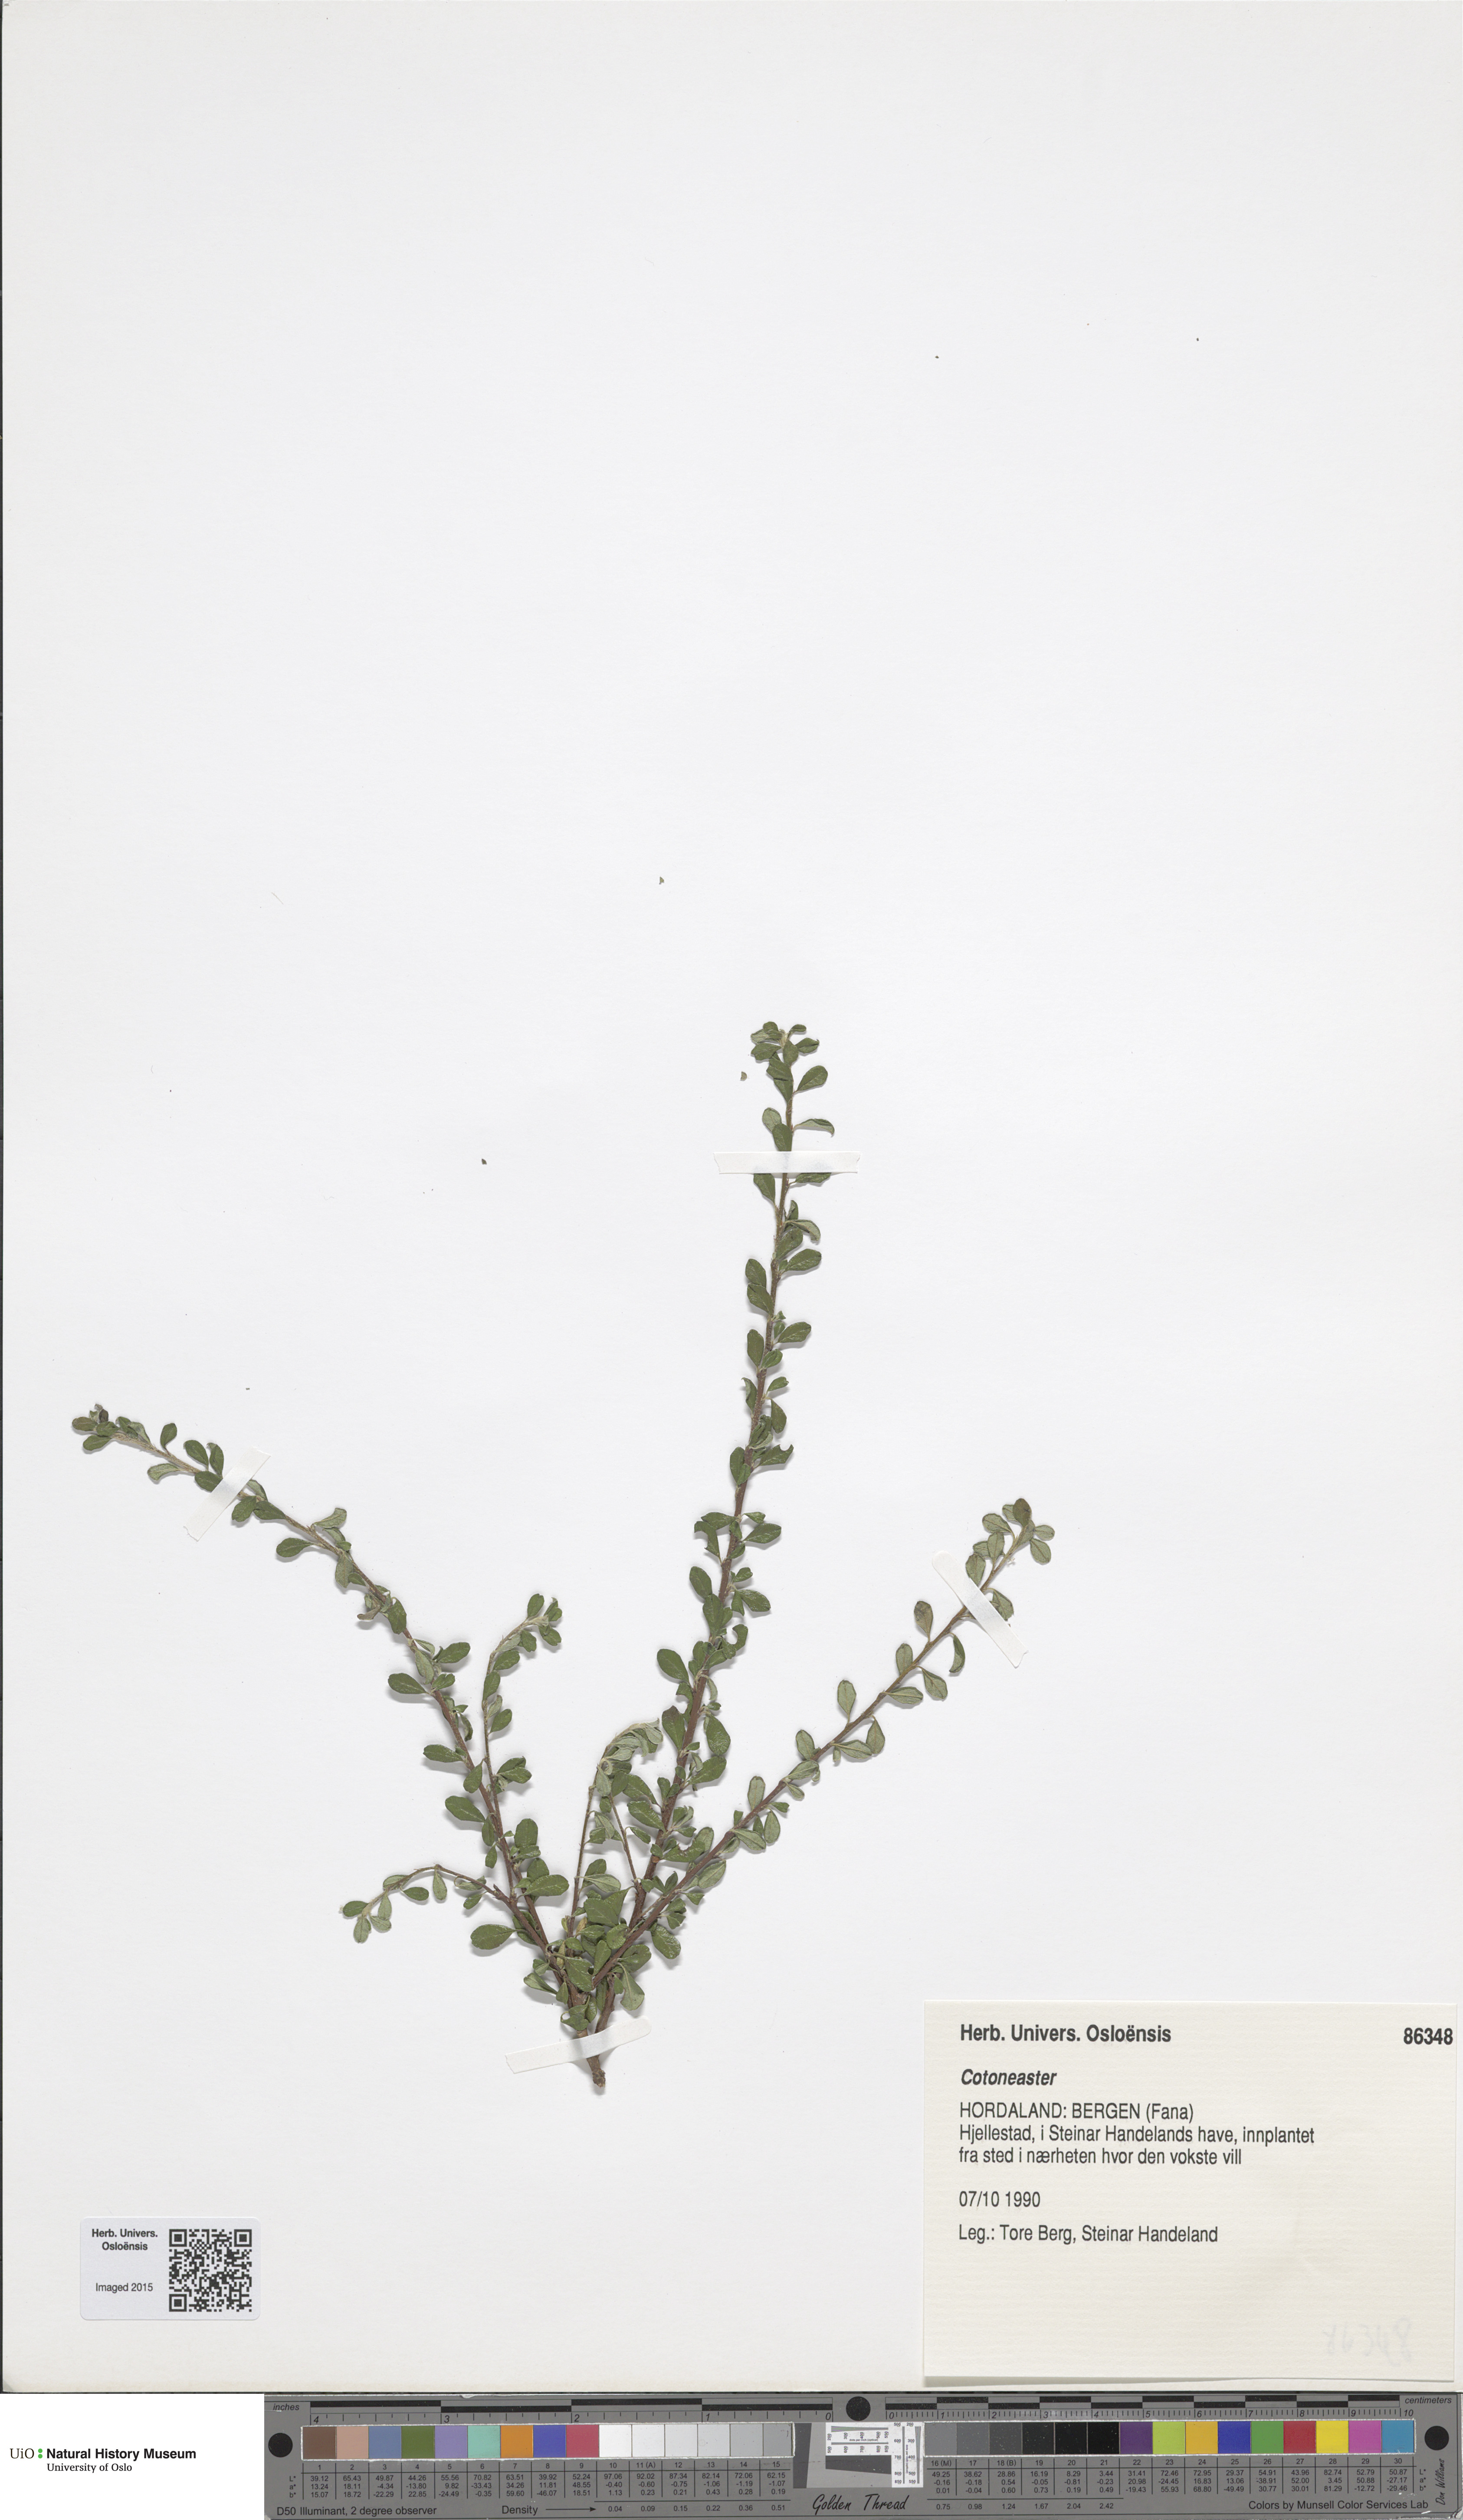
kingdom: Plantae
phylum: Tracheophyta
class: Magnoliopsida
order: Rosales
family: Rosaceae
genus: Cotoneaster
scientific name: Cotoneaster
